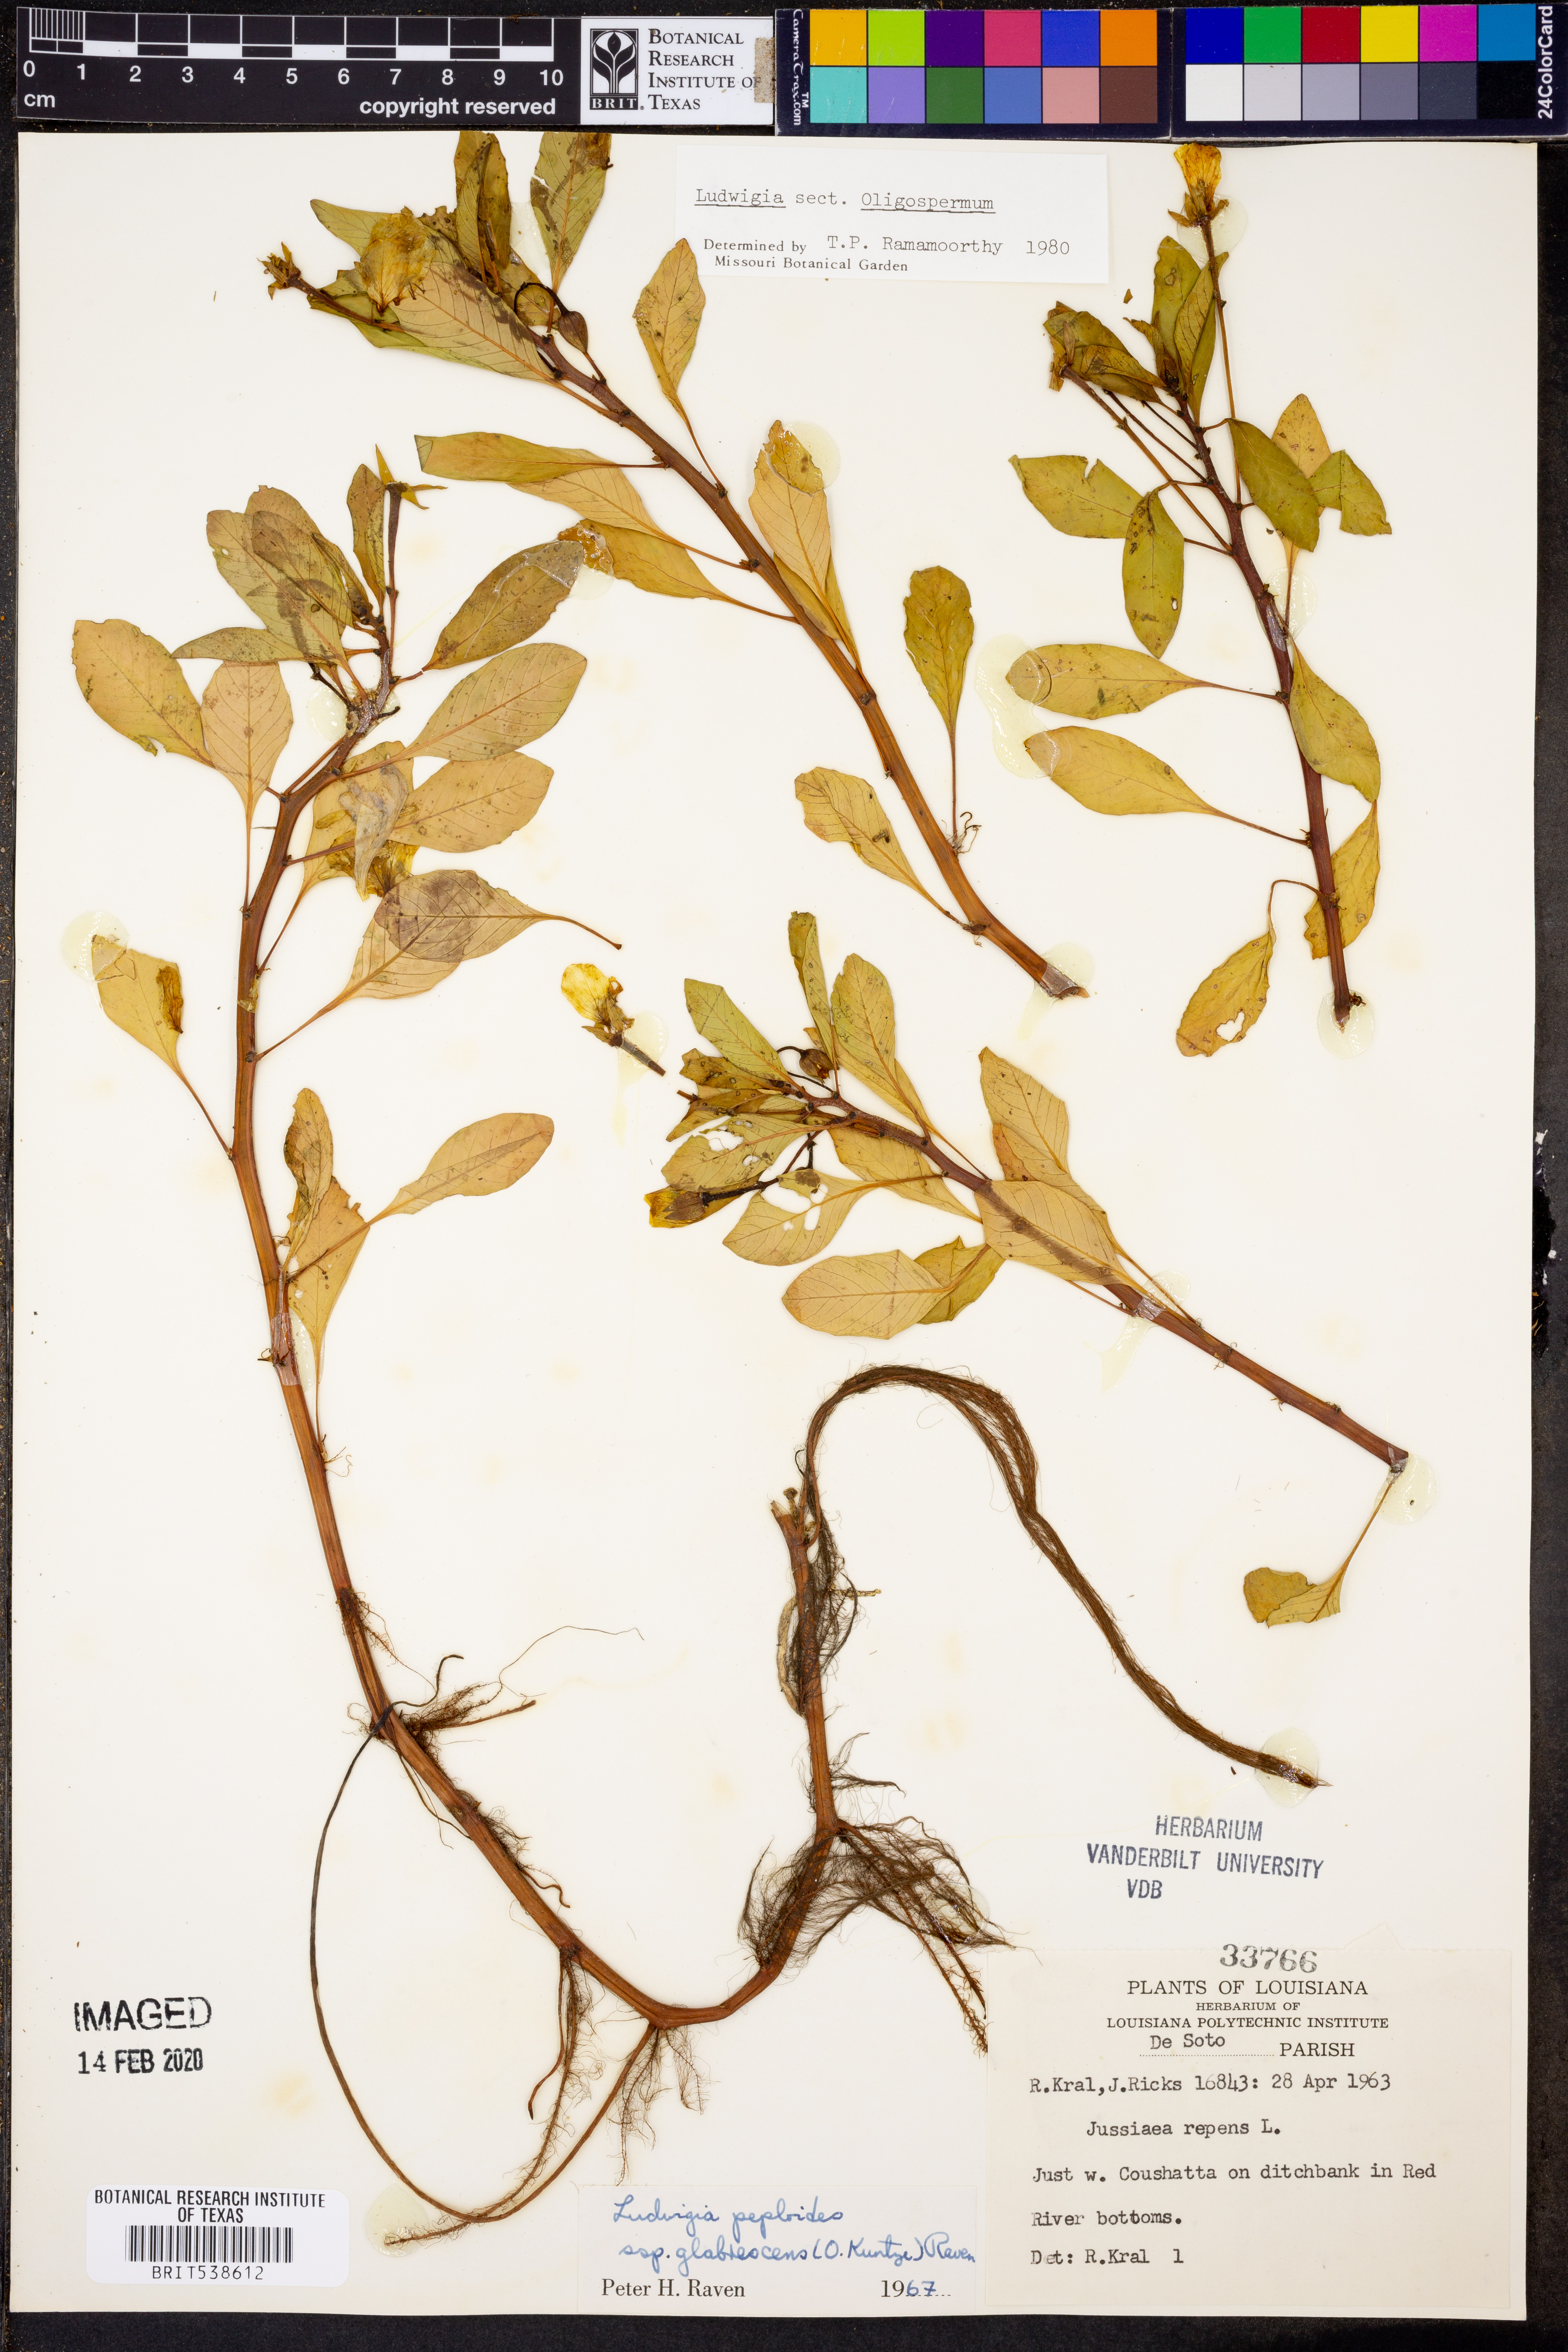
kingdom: Plantae
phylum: Tracheophyta
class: Magnoliopsida
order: Myrtales
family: Onagraceae
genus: Ludwigia
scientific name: Ludwigia
